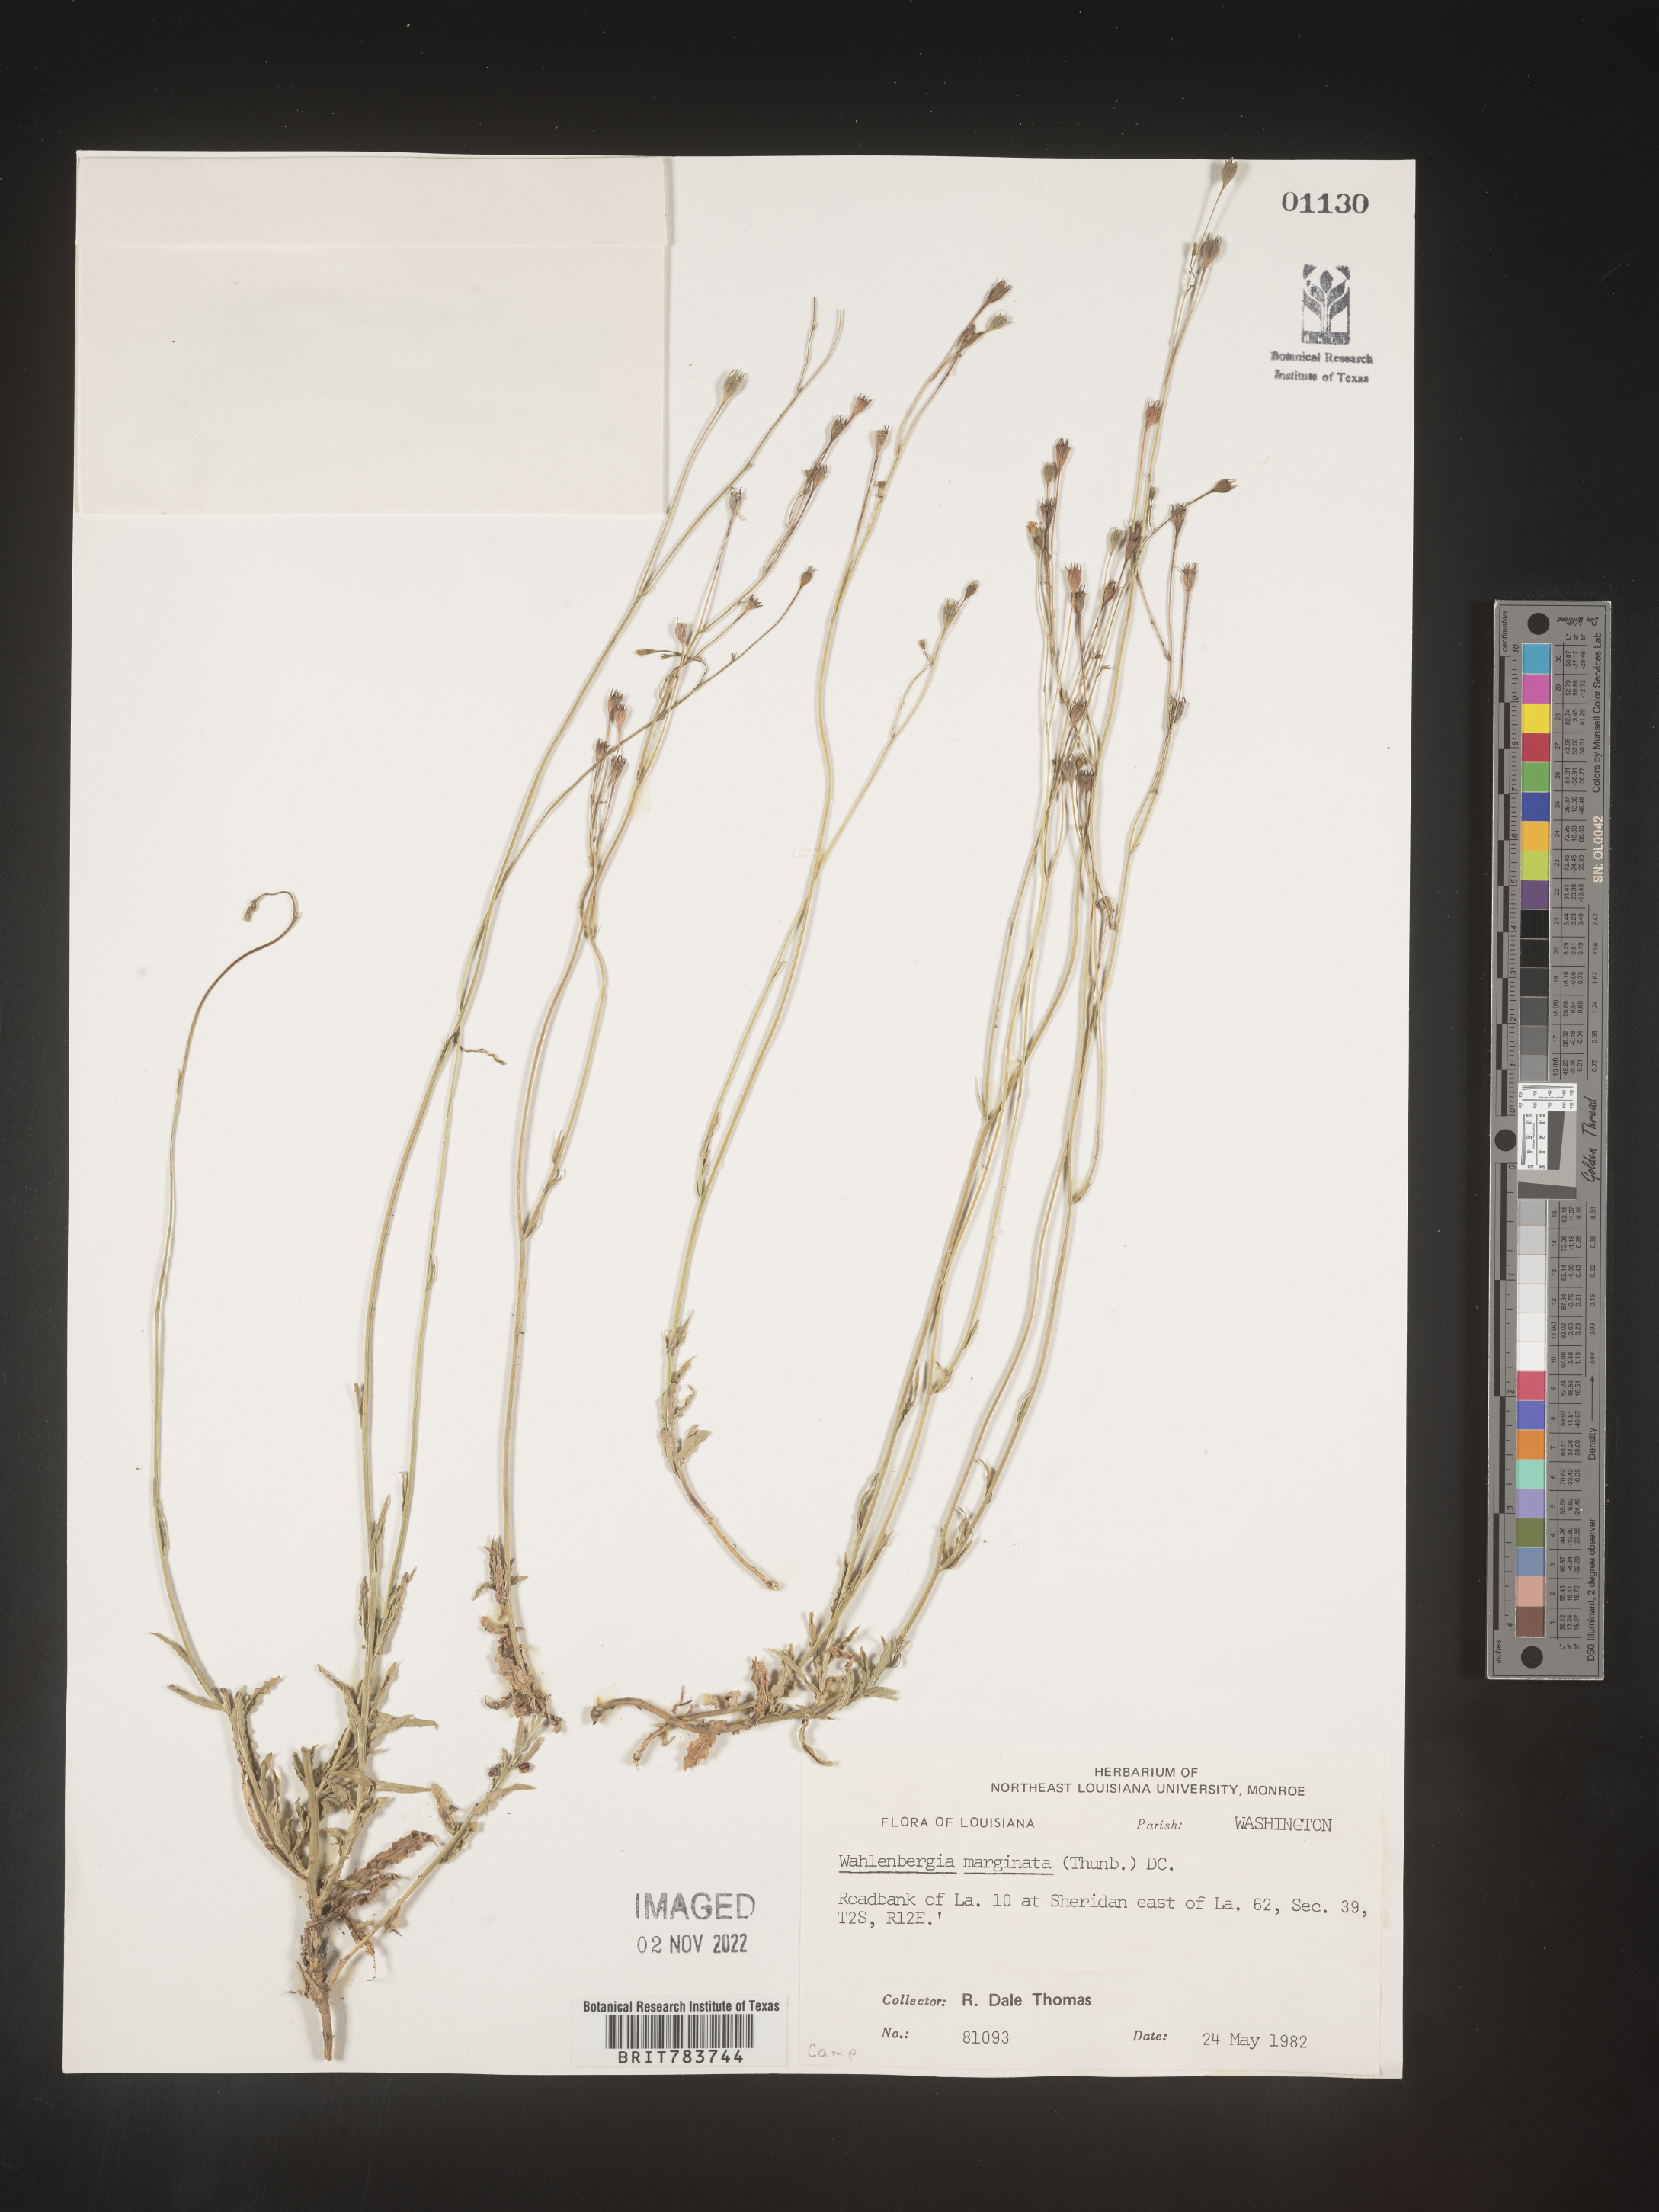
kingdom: Plantae
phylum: Tracheophyta
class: Magnoliopsida
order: Asterales
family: Campanulaceae
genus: Wahlenbergia
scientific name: Wahlenbergia marginata
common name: Southern rockbell
